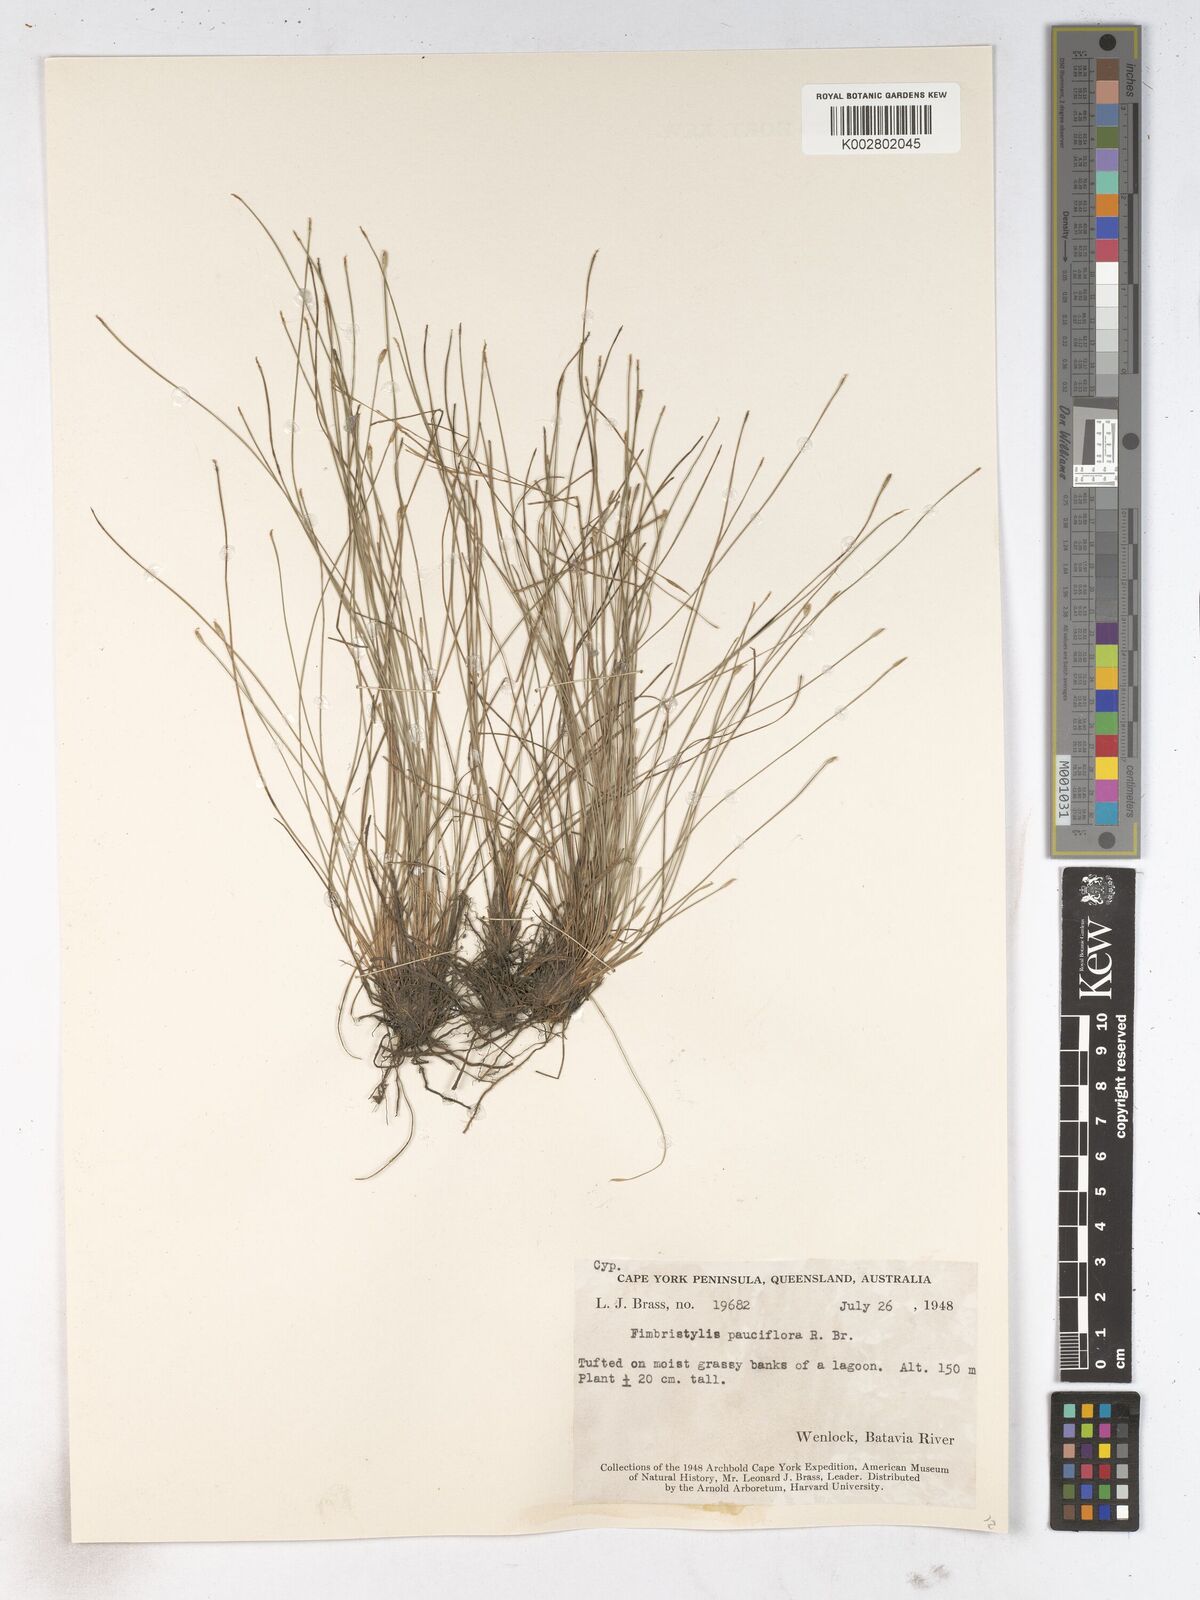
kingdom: Plantae
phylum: Tracheophyta
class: Liliopsida
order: Poales
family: Cyperaceae
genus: Fimbristylis
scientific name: Fimbristylis pauciflora
